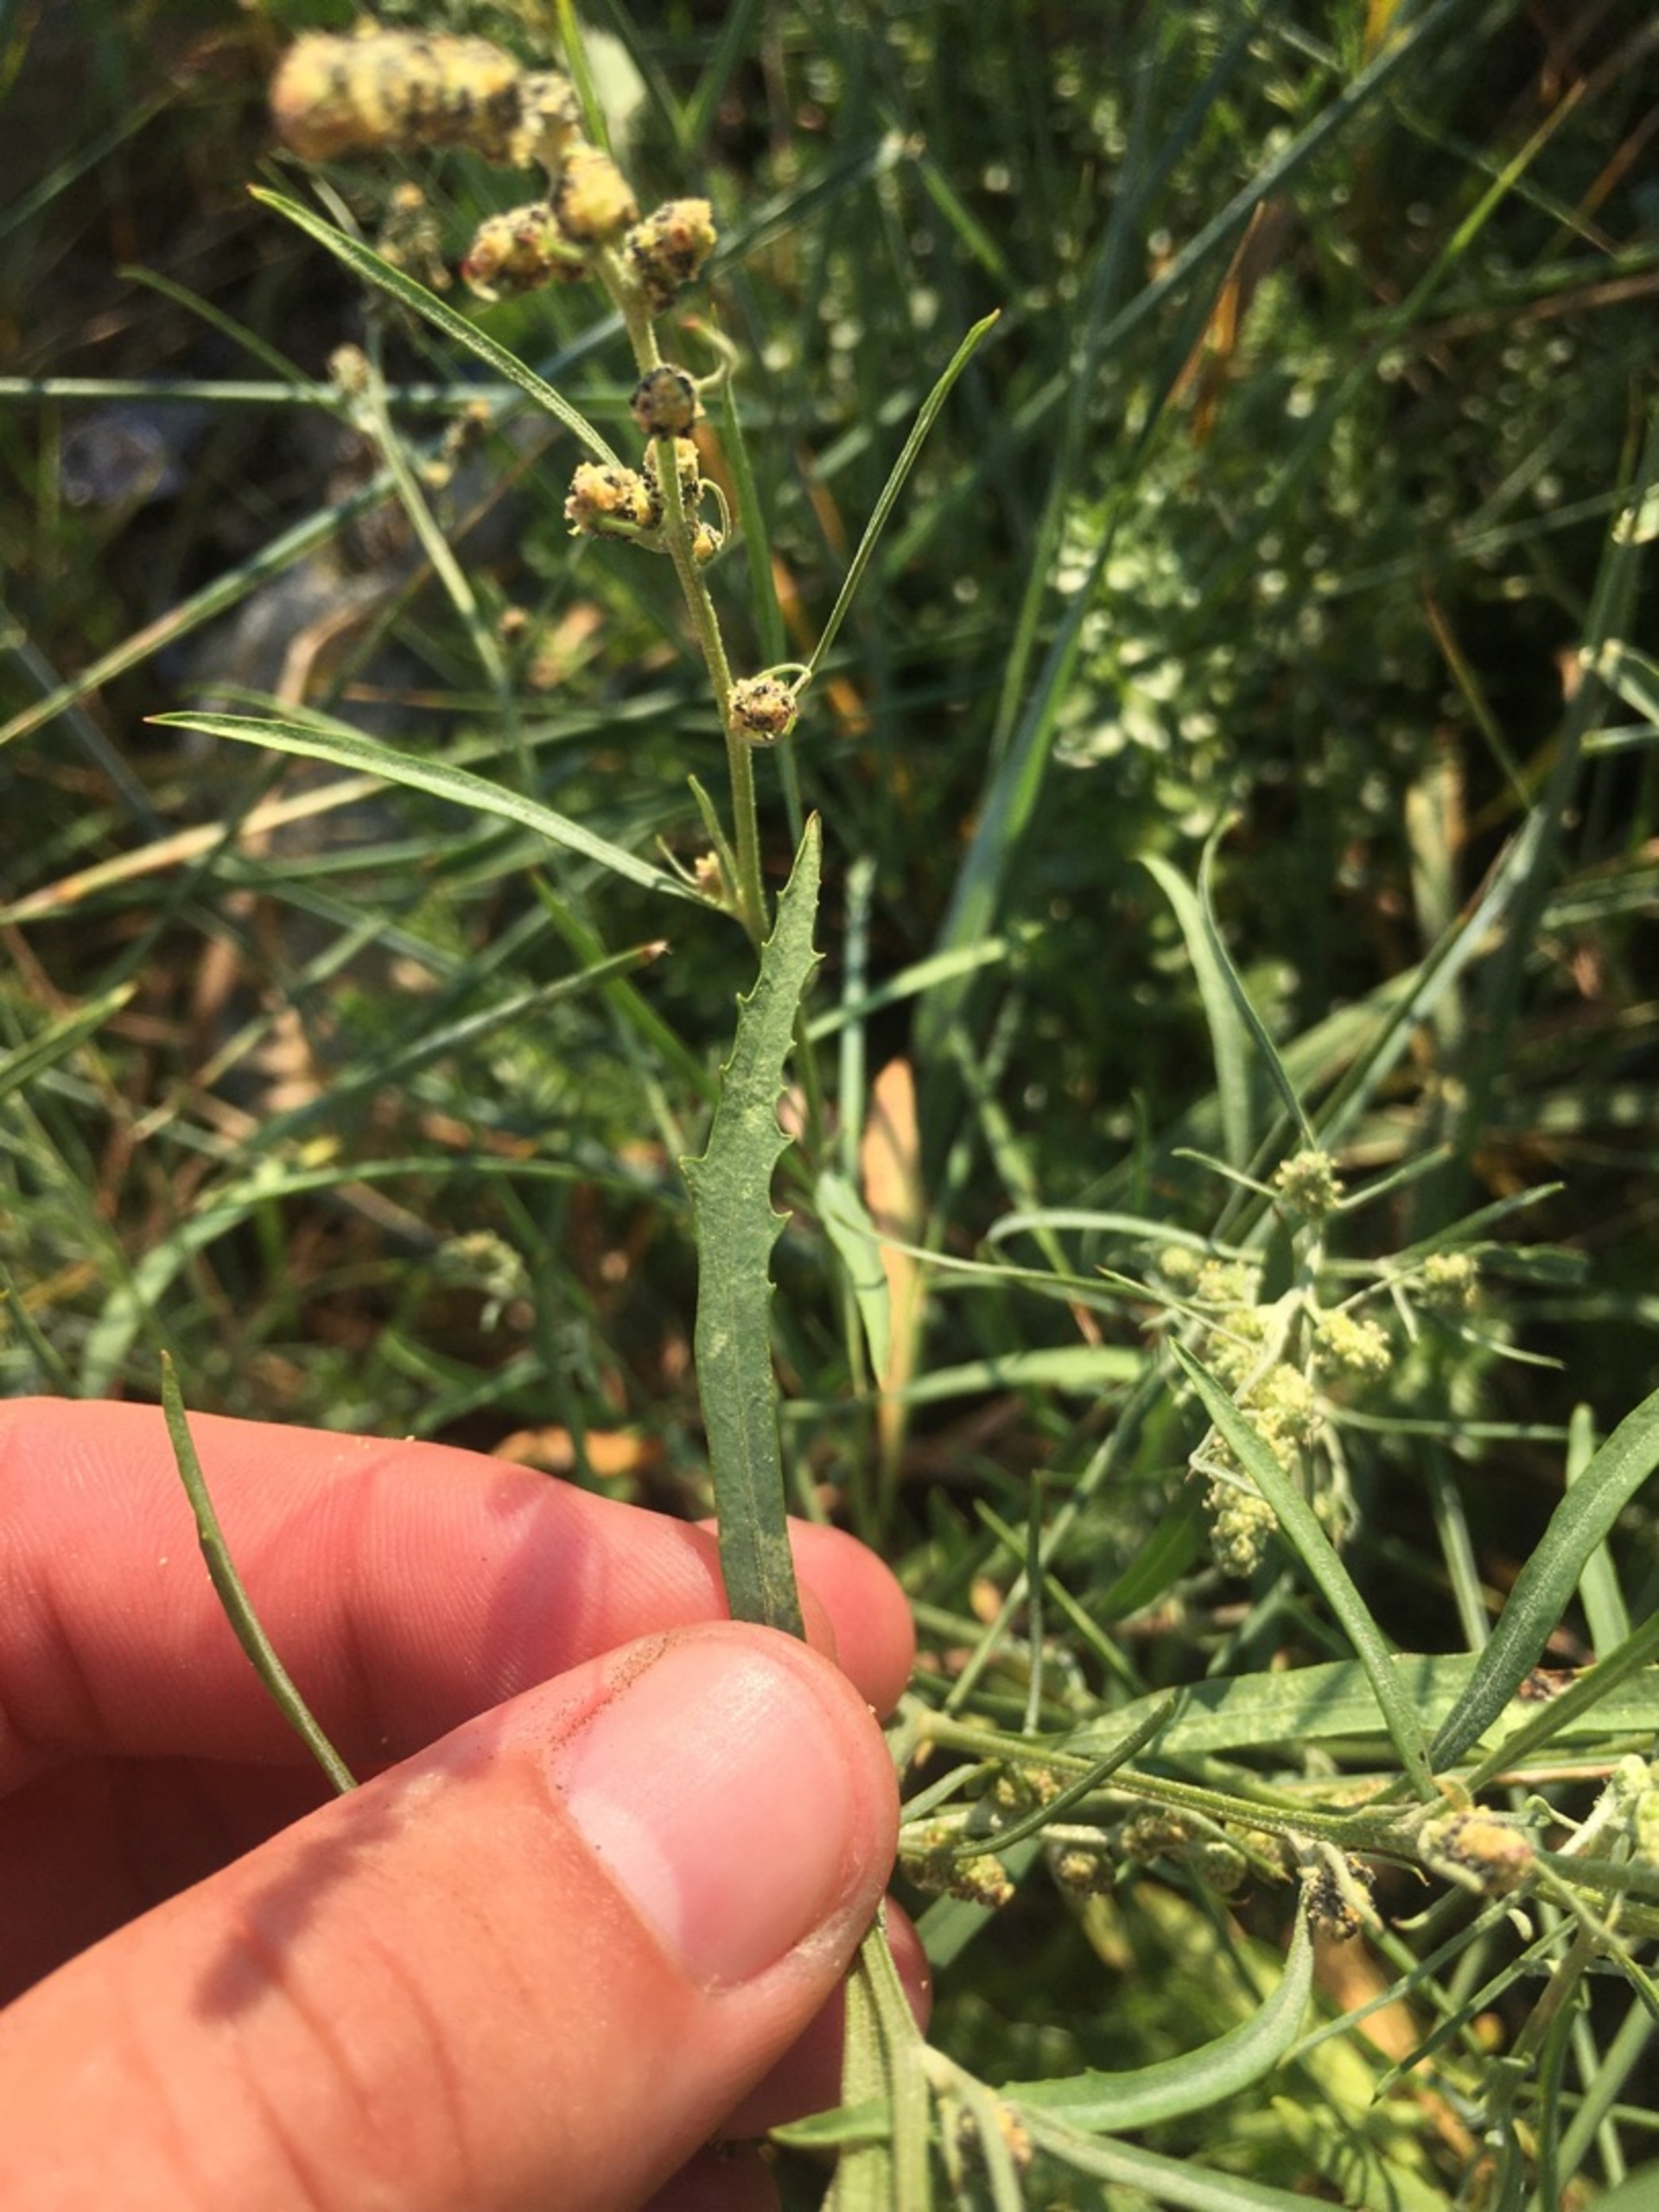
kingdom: Plantae
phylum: Tracheophyta
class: Magnoliopsida
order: Caryophyllales
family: Amaranthaceae
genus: Atriplex
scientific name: Atriplex littoralis
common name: Strand-mælde
